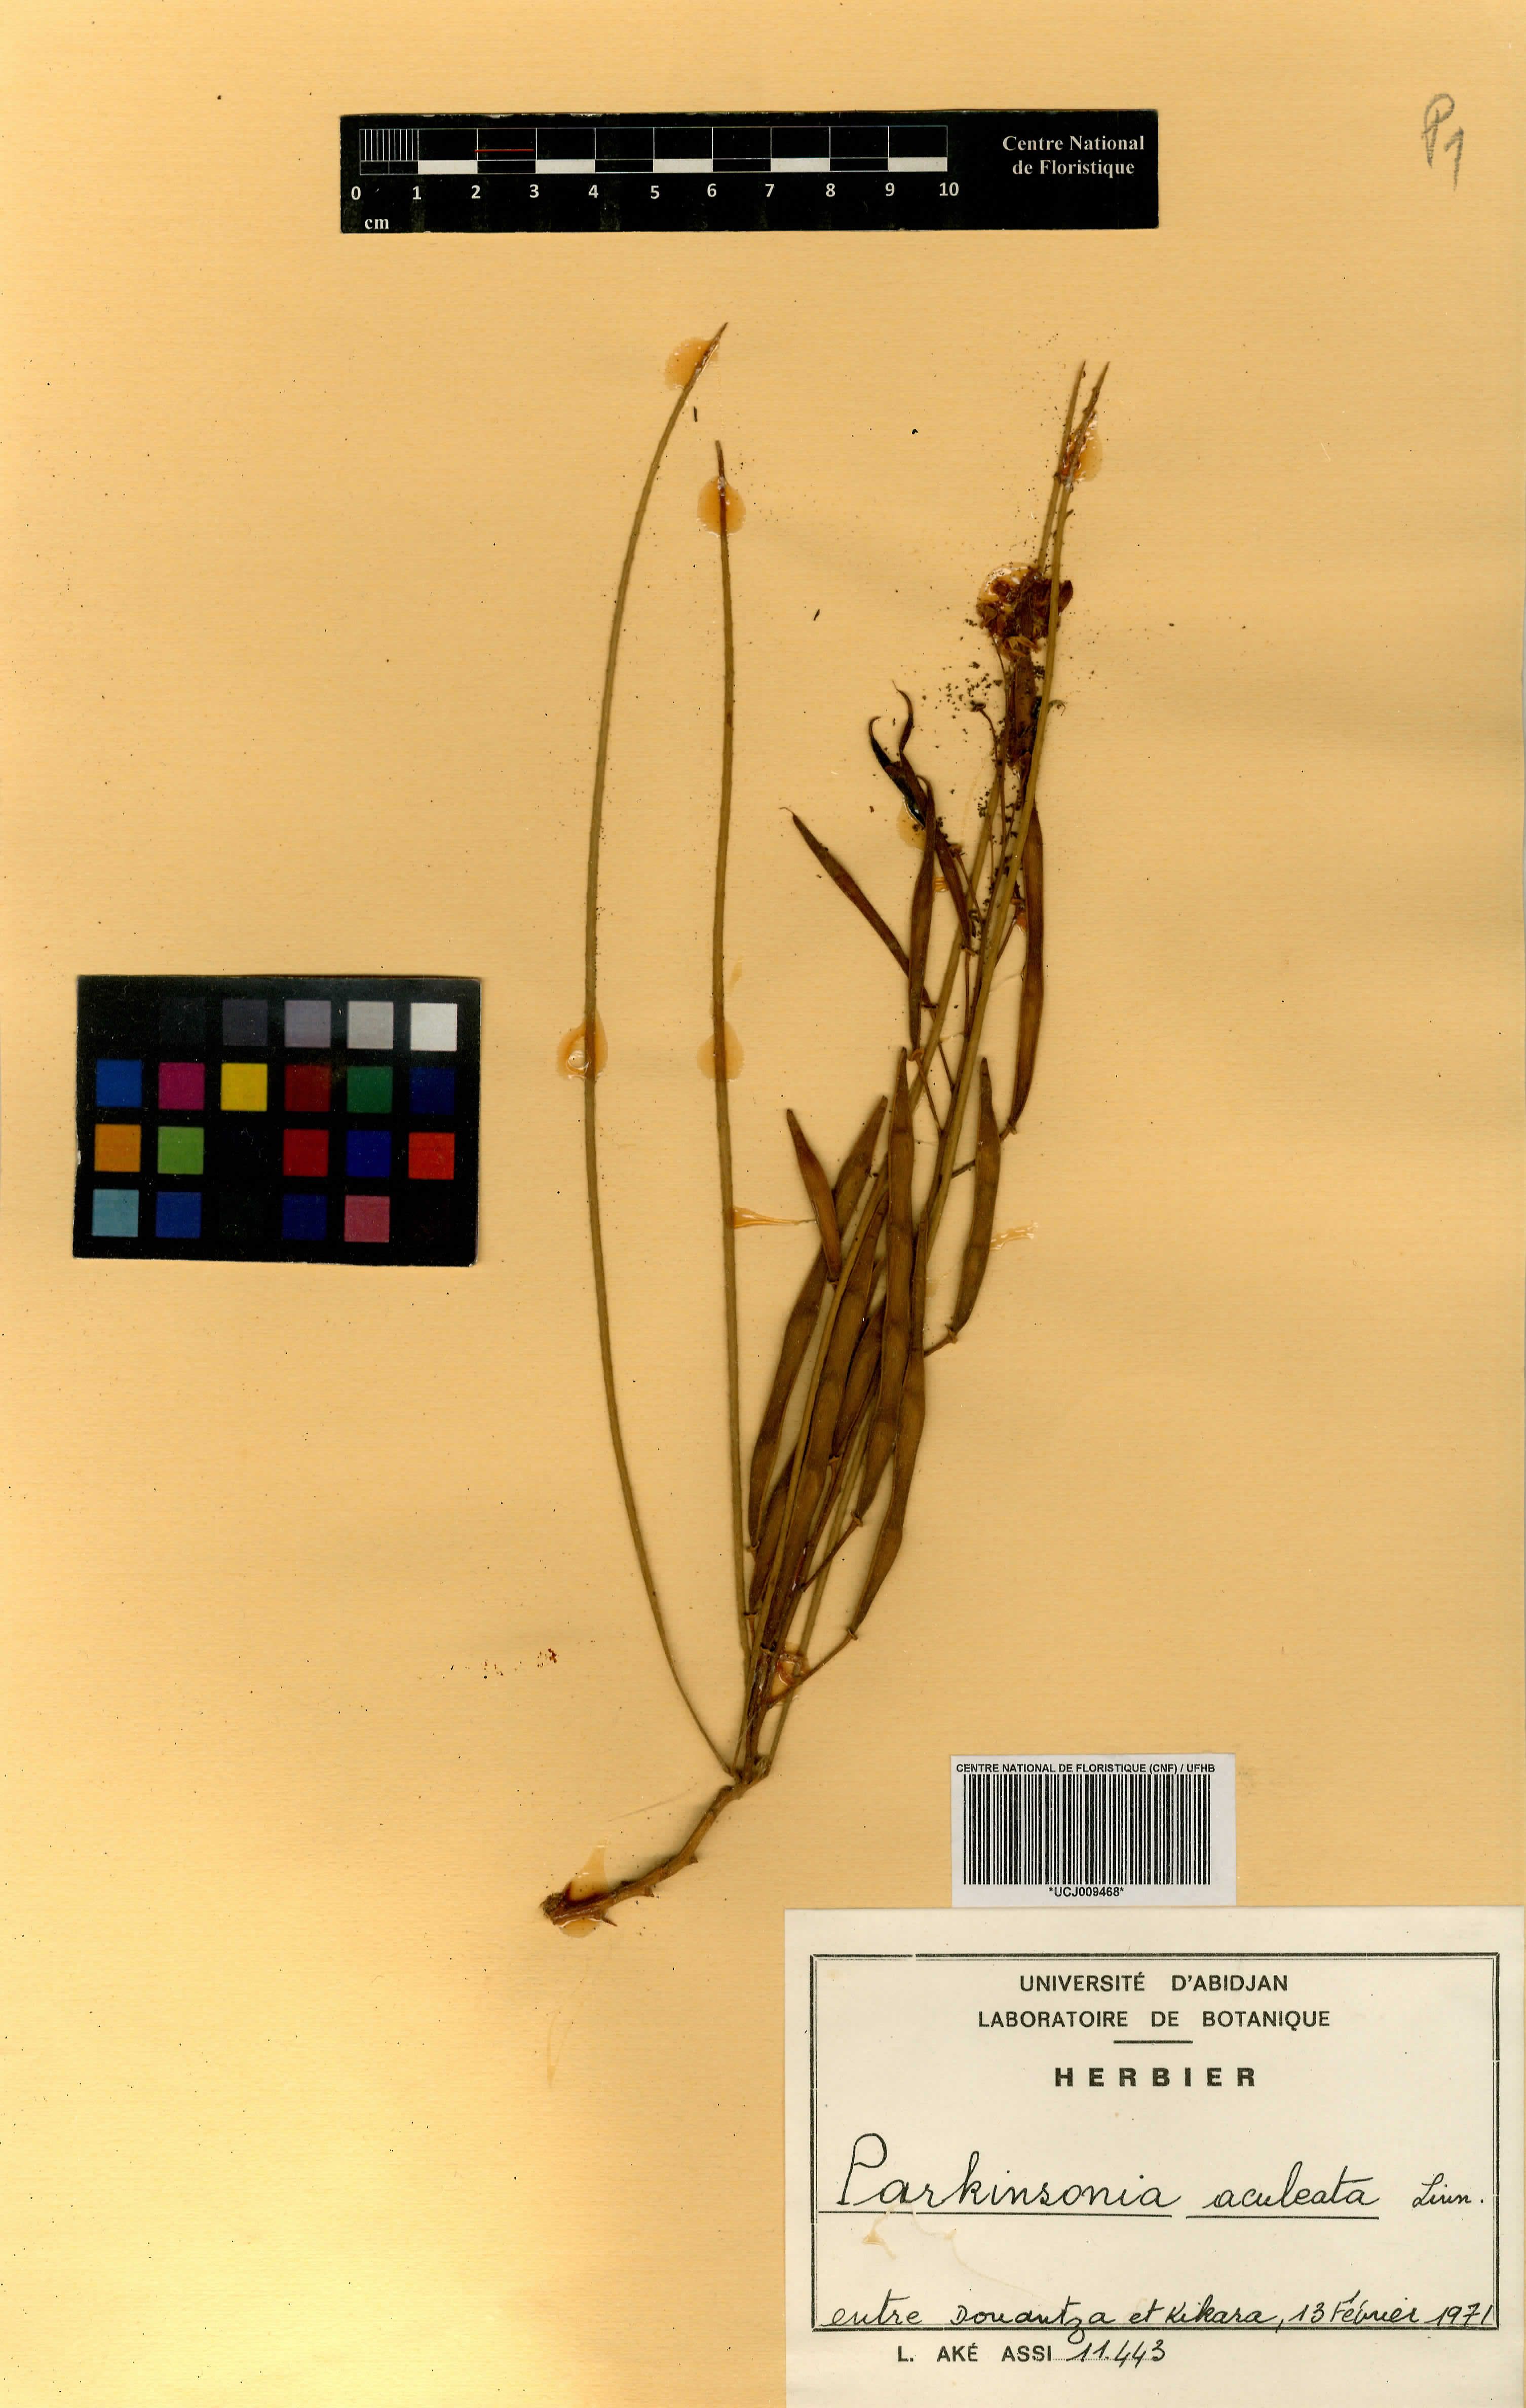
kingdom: Plantae
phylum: Tracheophyta
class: Magnoliopsida
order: Fabales
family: Fabaceae
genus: Parkinsonia
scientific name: Parkinsonia aculeata
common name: Jerusalem thorn
